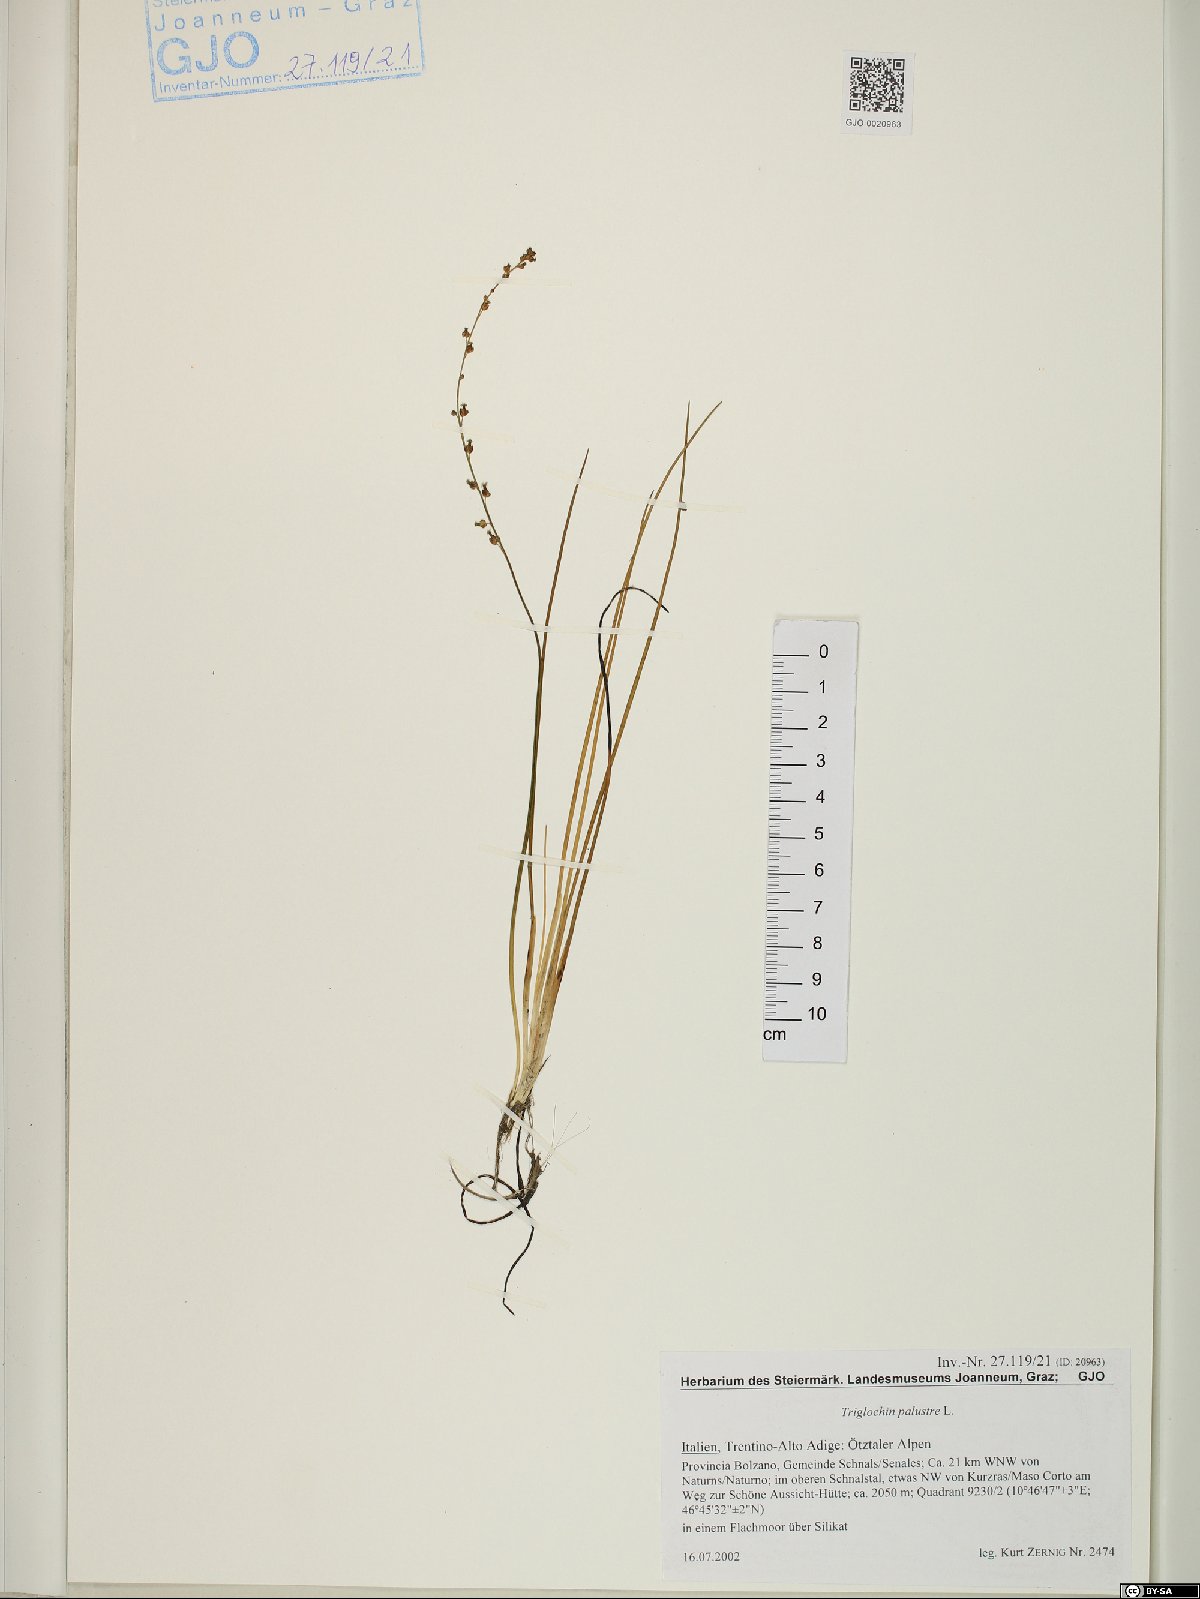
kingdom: Plantae
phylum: Tracheophyta
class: Liliopsida
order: Alismatales
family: Juncaginaceae
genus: Triglochin
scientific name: Triglochin palustris
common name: Marsh arrowgrass
